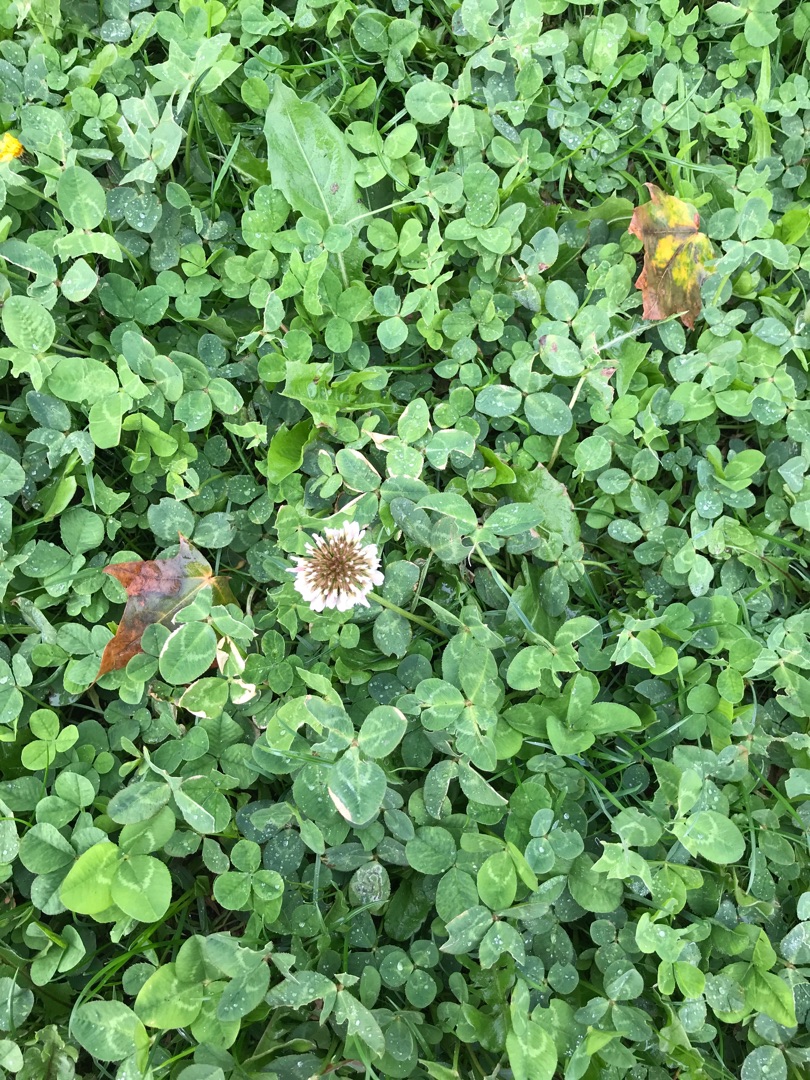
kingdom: Plantae
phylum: Tracheophyta
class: Magnoliopsida
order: Fabales
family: Fabaceae
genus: Trifolium
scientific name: Trifolium repens
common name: Hvid-kløver
